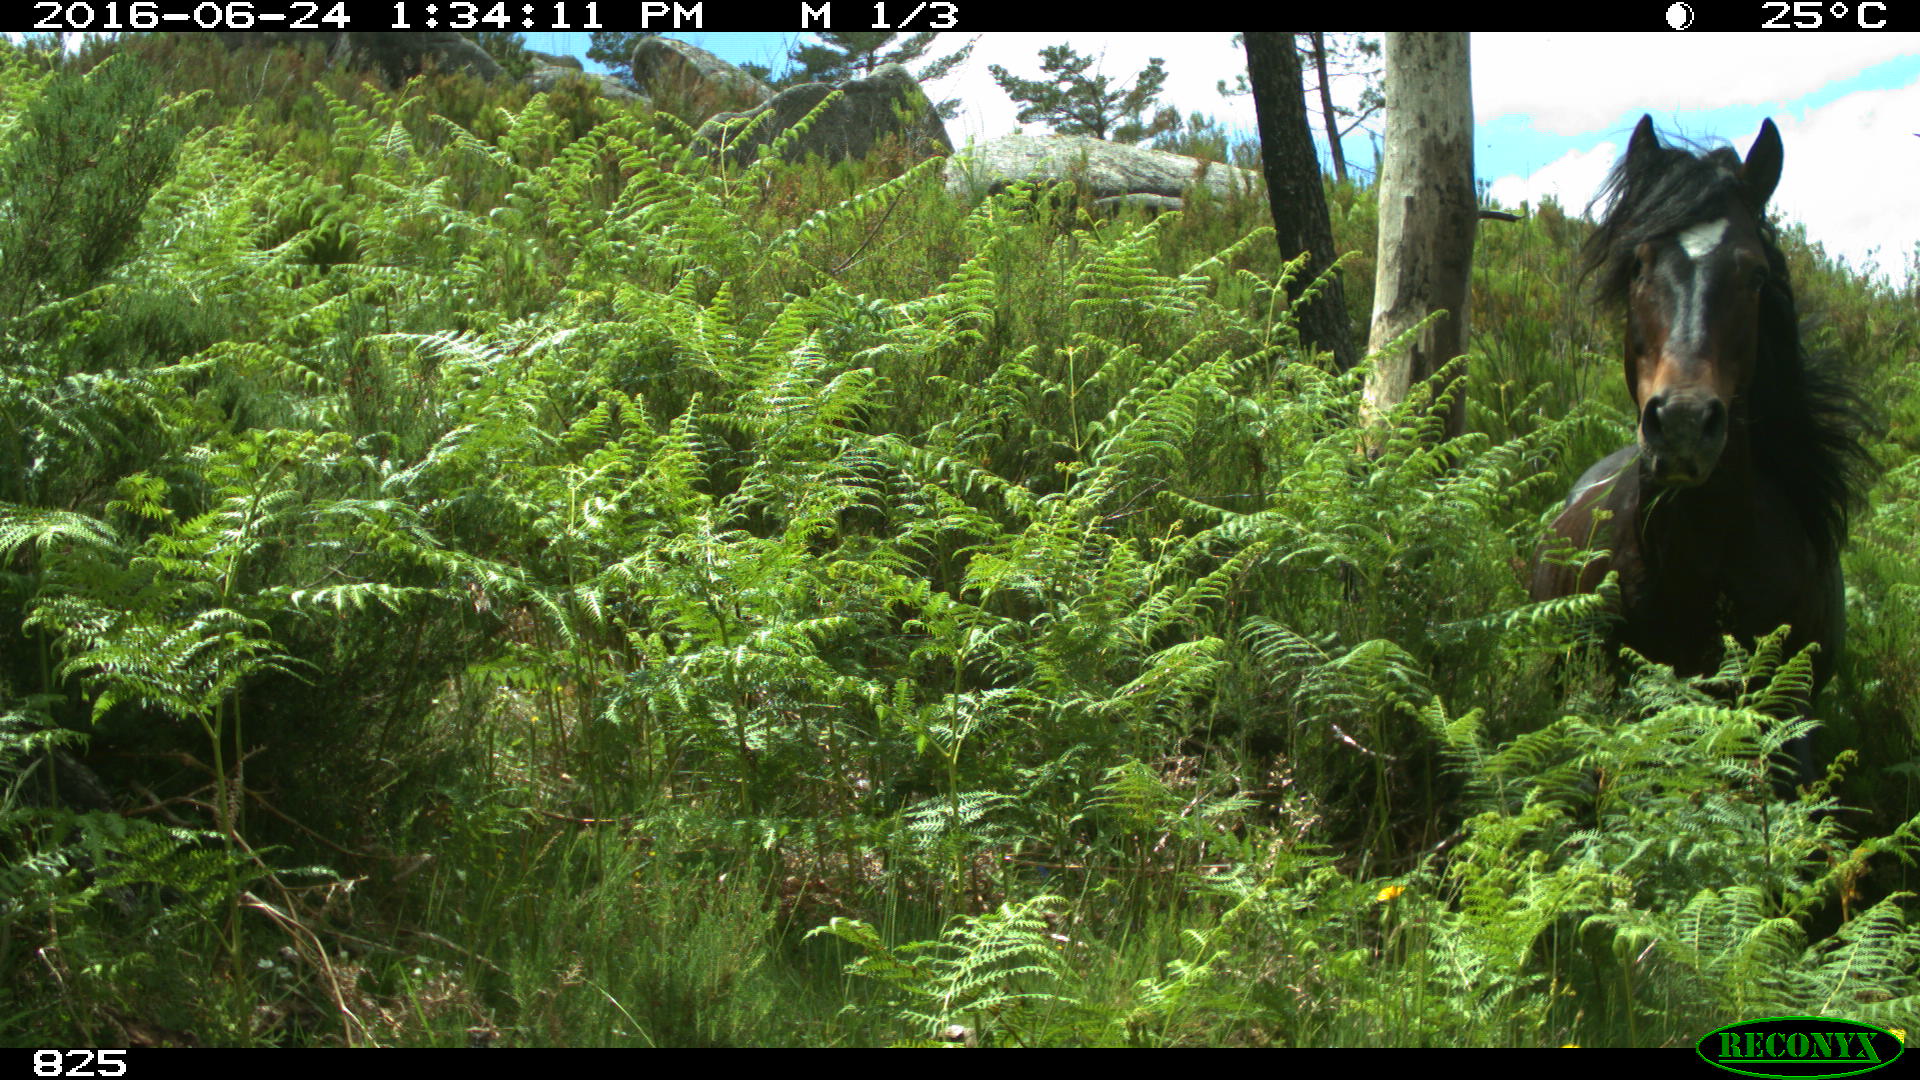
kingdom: Animalia
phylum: Chordata
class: Mammalia
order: Perissodactyla
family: Equidae
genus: Equus
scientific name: Equus caballus
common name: Horse
